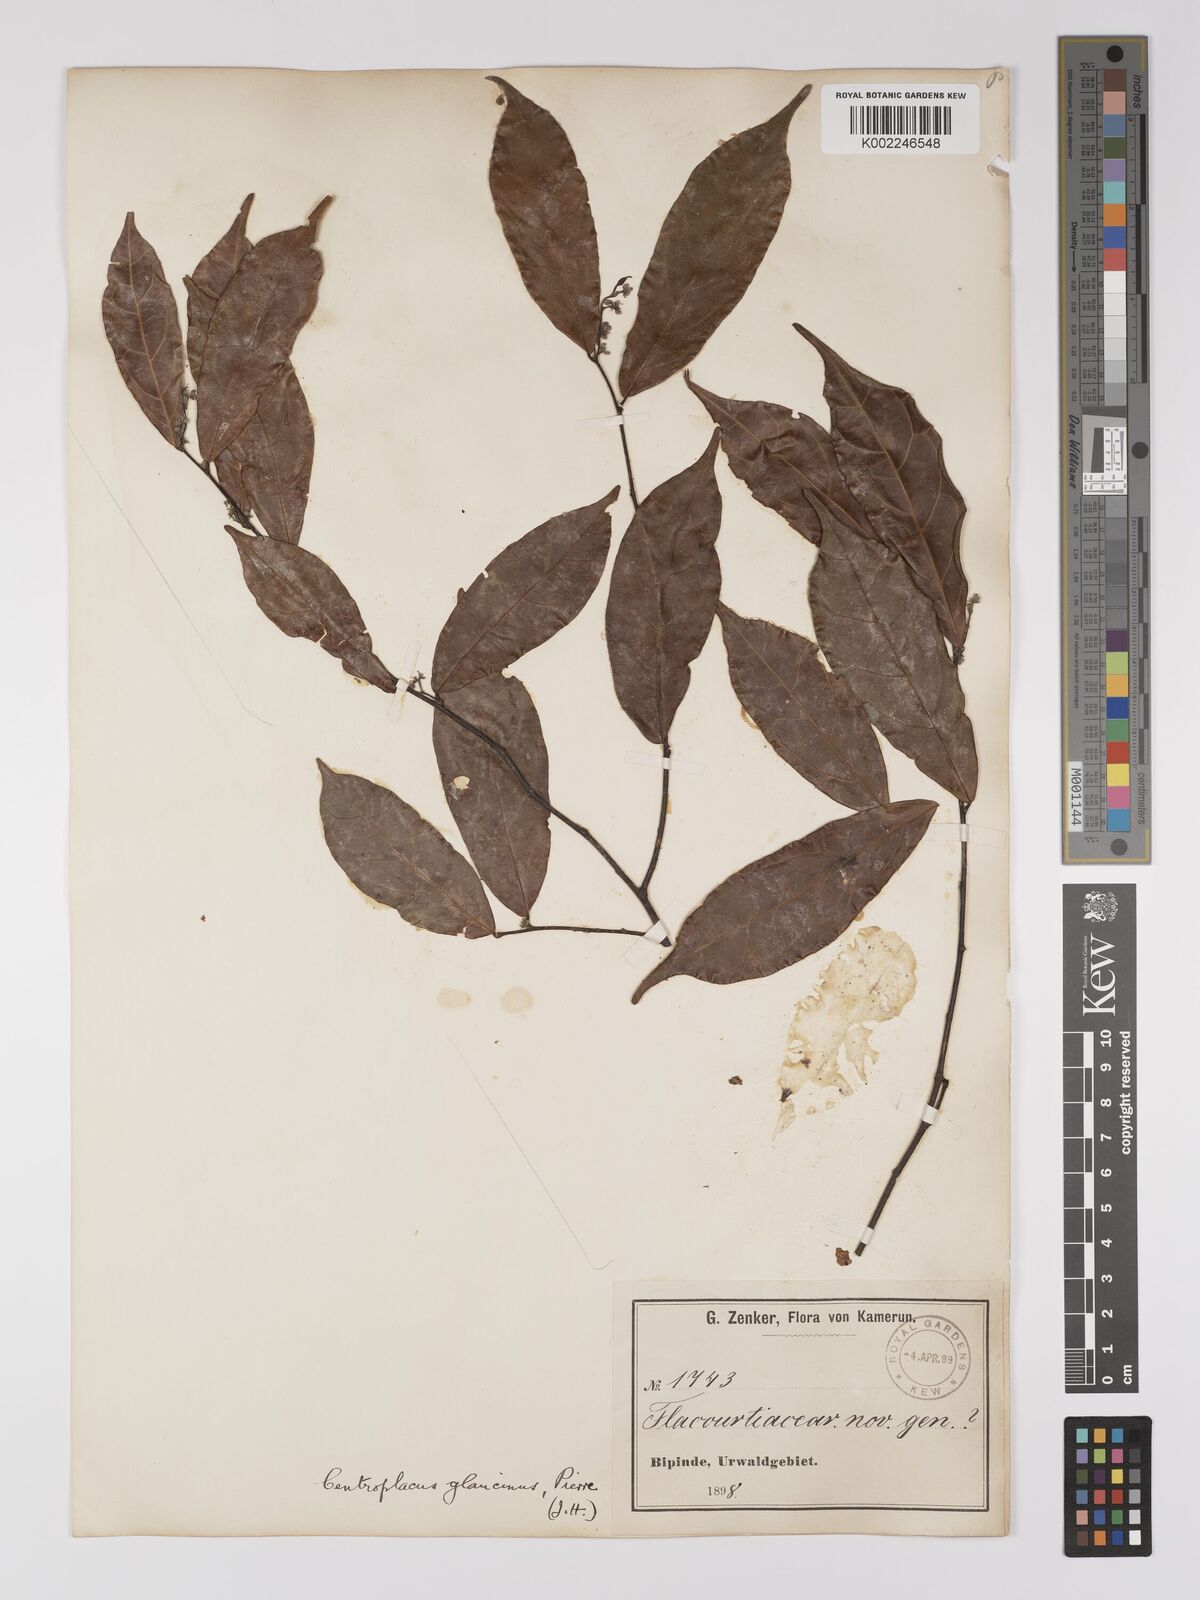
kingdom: Plantae
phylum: Tracheophyta
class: Magnoliopsida
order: Malpighiales
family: Centroplacaceae
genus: Centroplacus
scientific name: Centroplacus glaucinus
